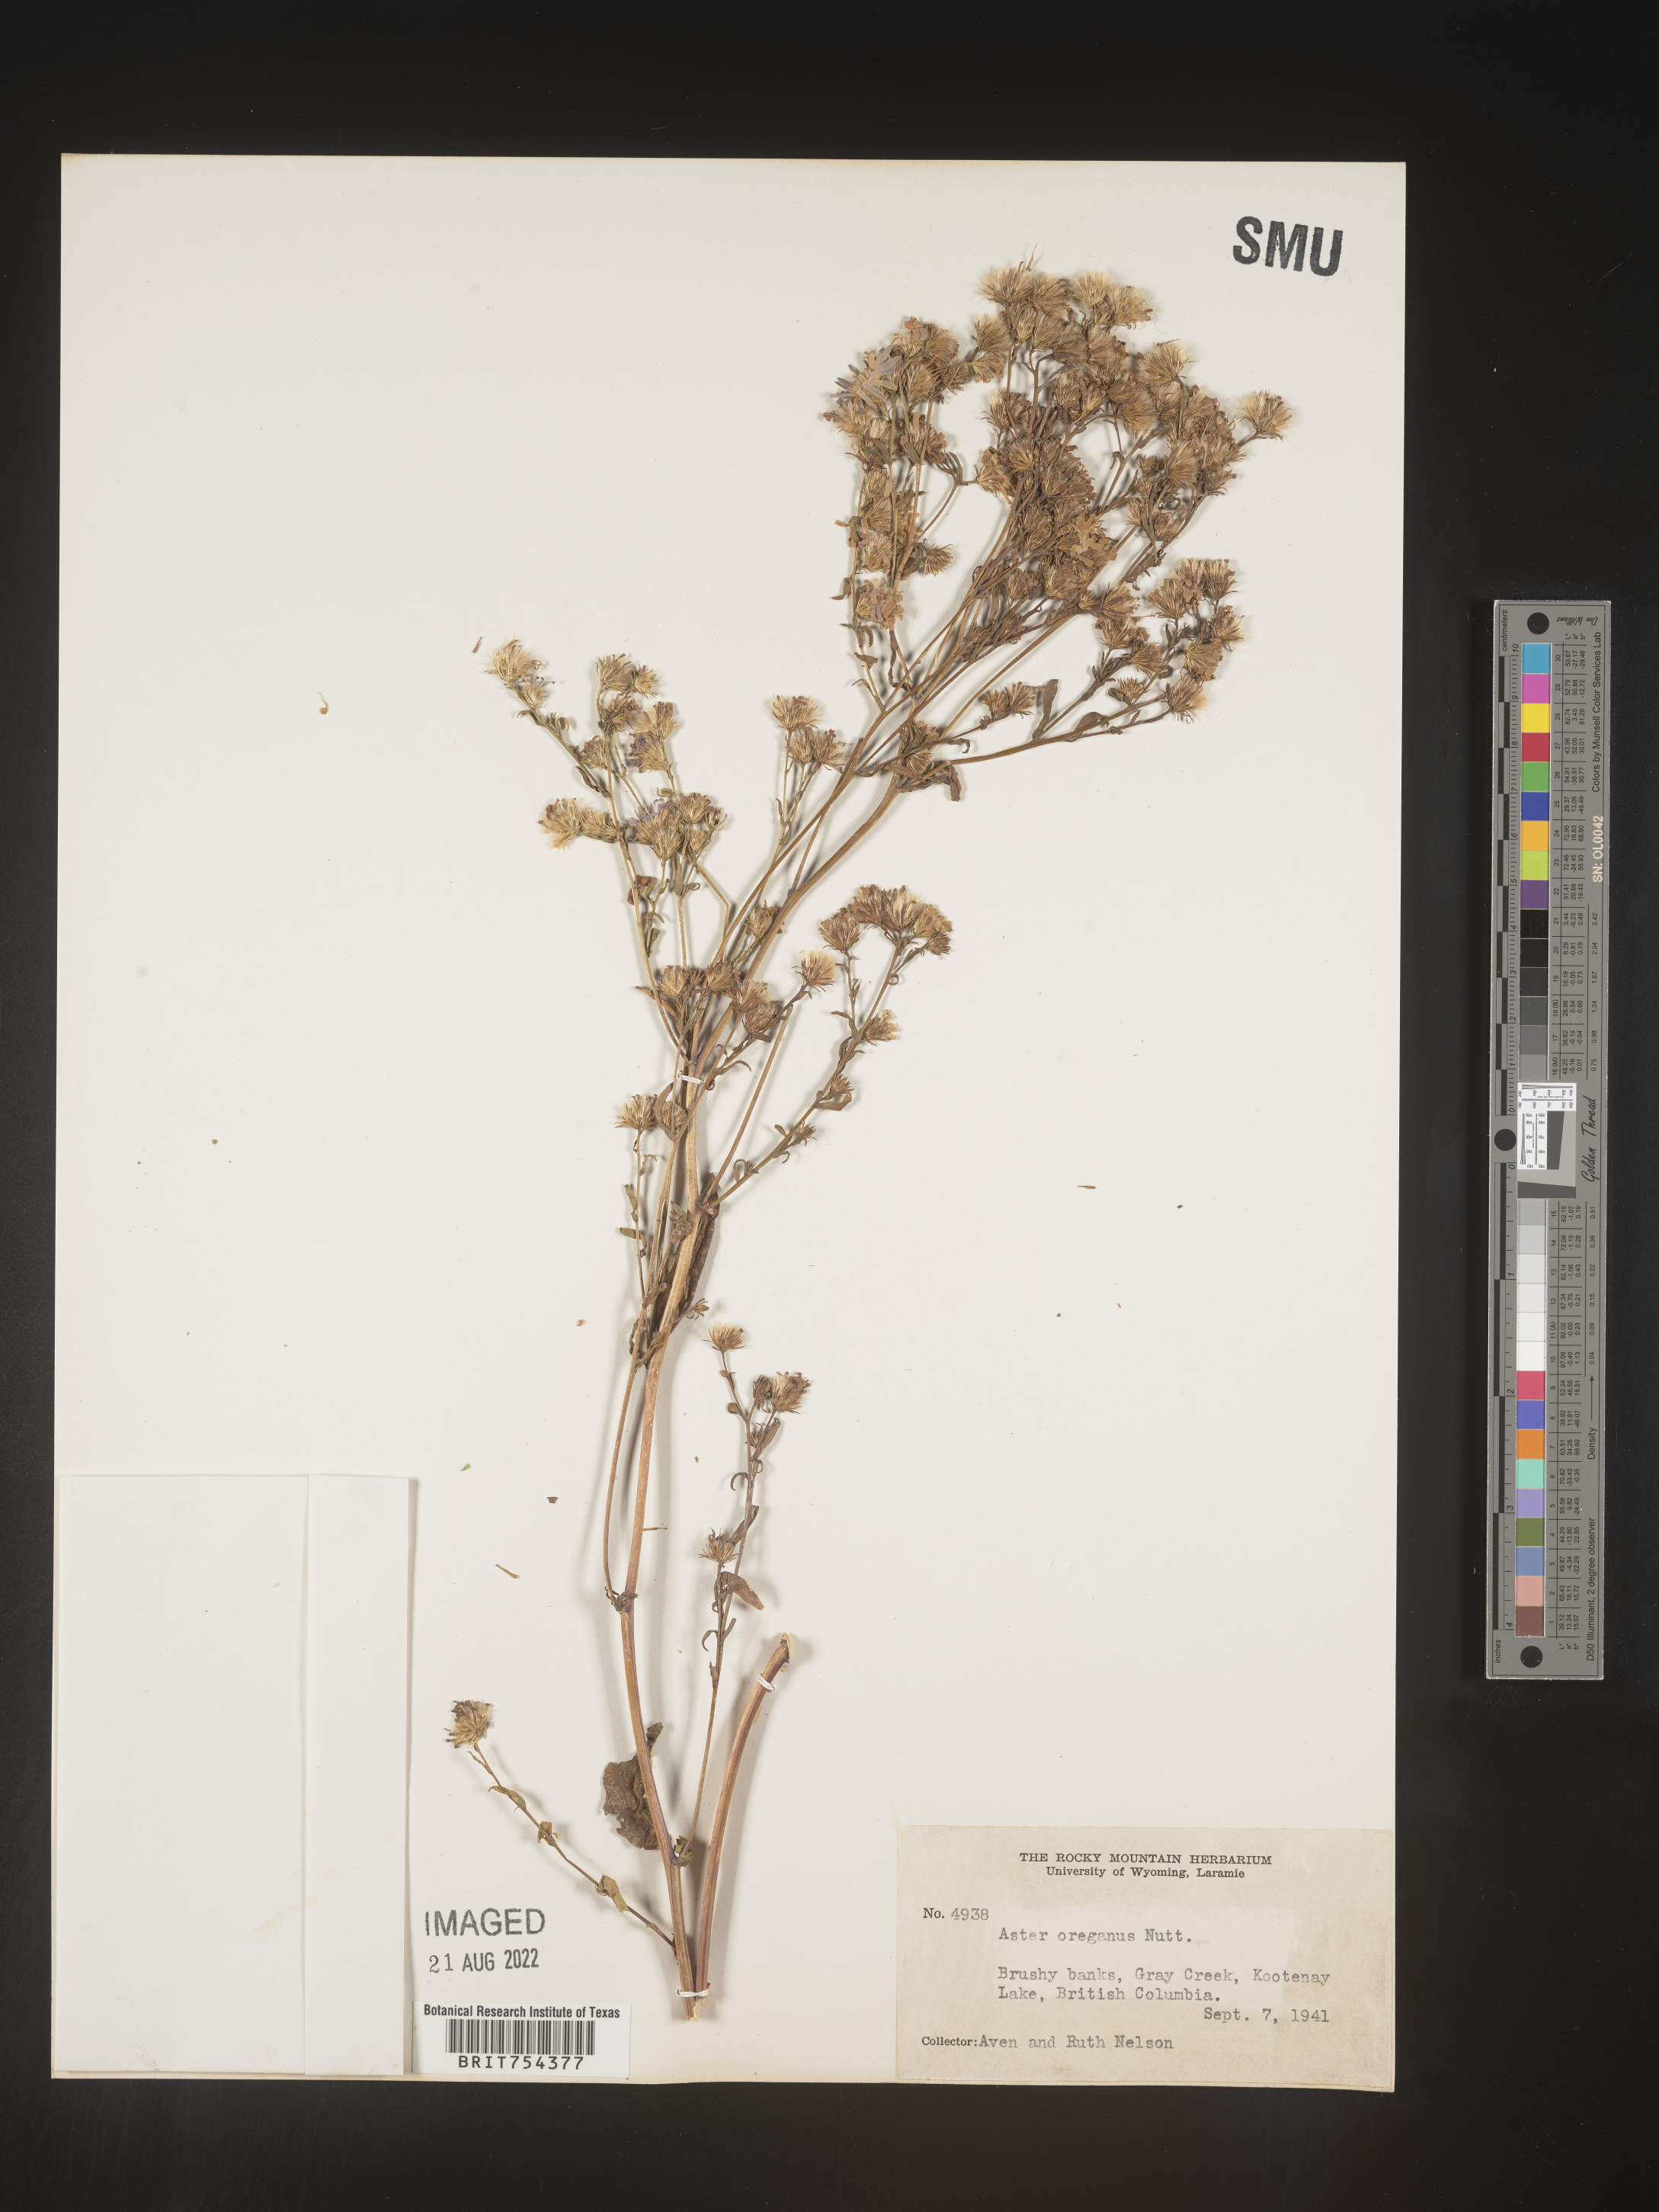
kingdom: Plantae
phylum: Tracheophyta
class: Magnoliopsida
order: Asterales
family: Asteraceae
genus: Symphyotrichum
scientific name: Symphyotrichum spathulatum
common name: Western mountain aster
